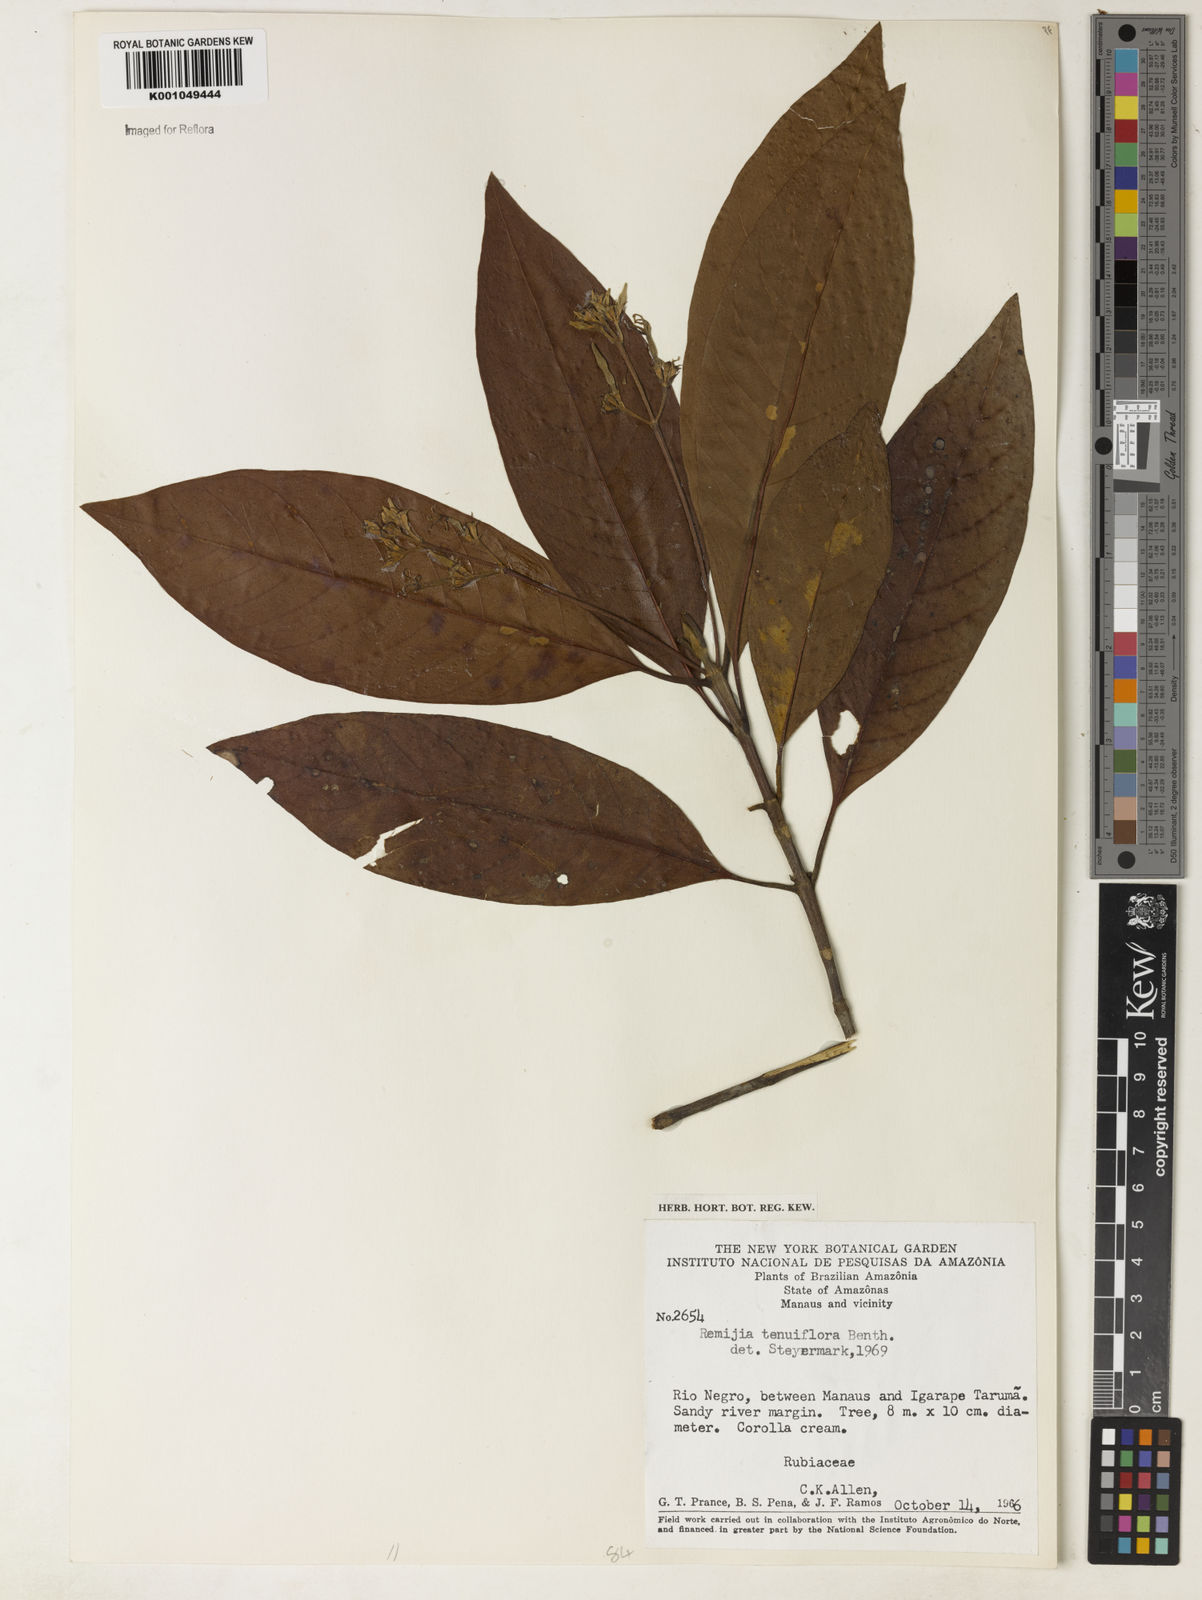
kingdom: Plantae
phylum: Tracheophyta
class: Magnoliopsida
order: Gentianales
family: Rubiaceae
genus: Remijia
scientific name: Remijia tenuiflora
